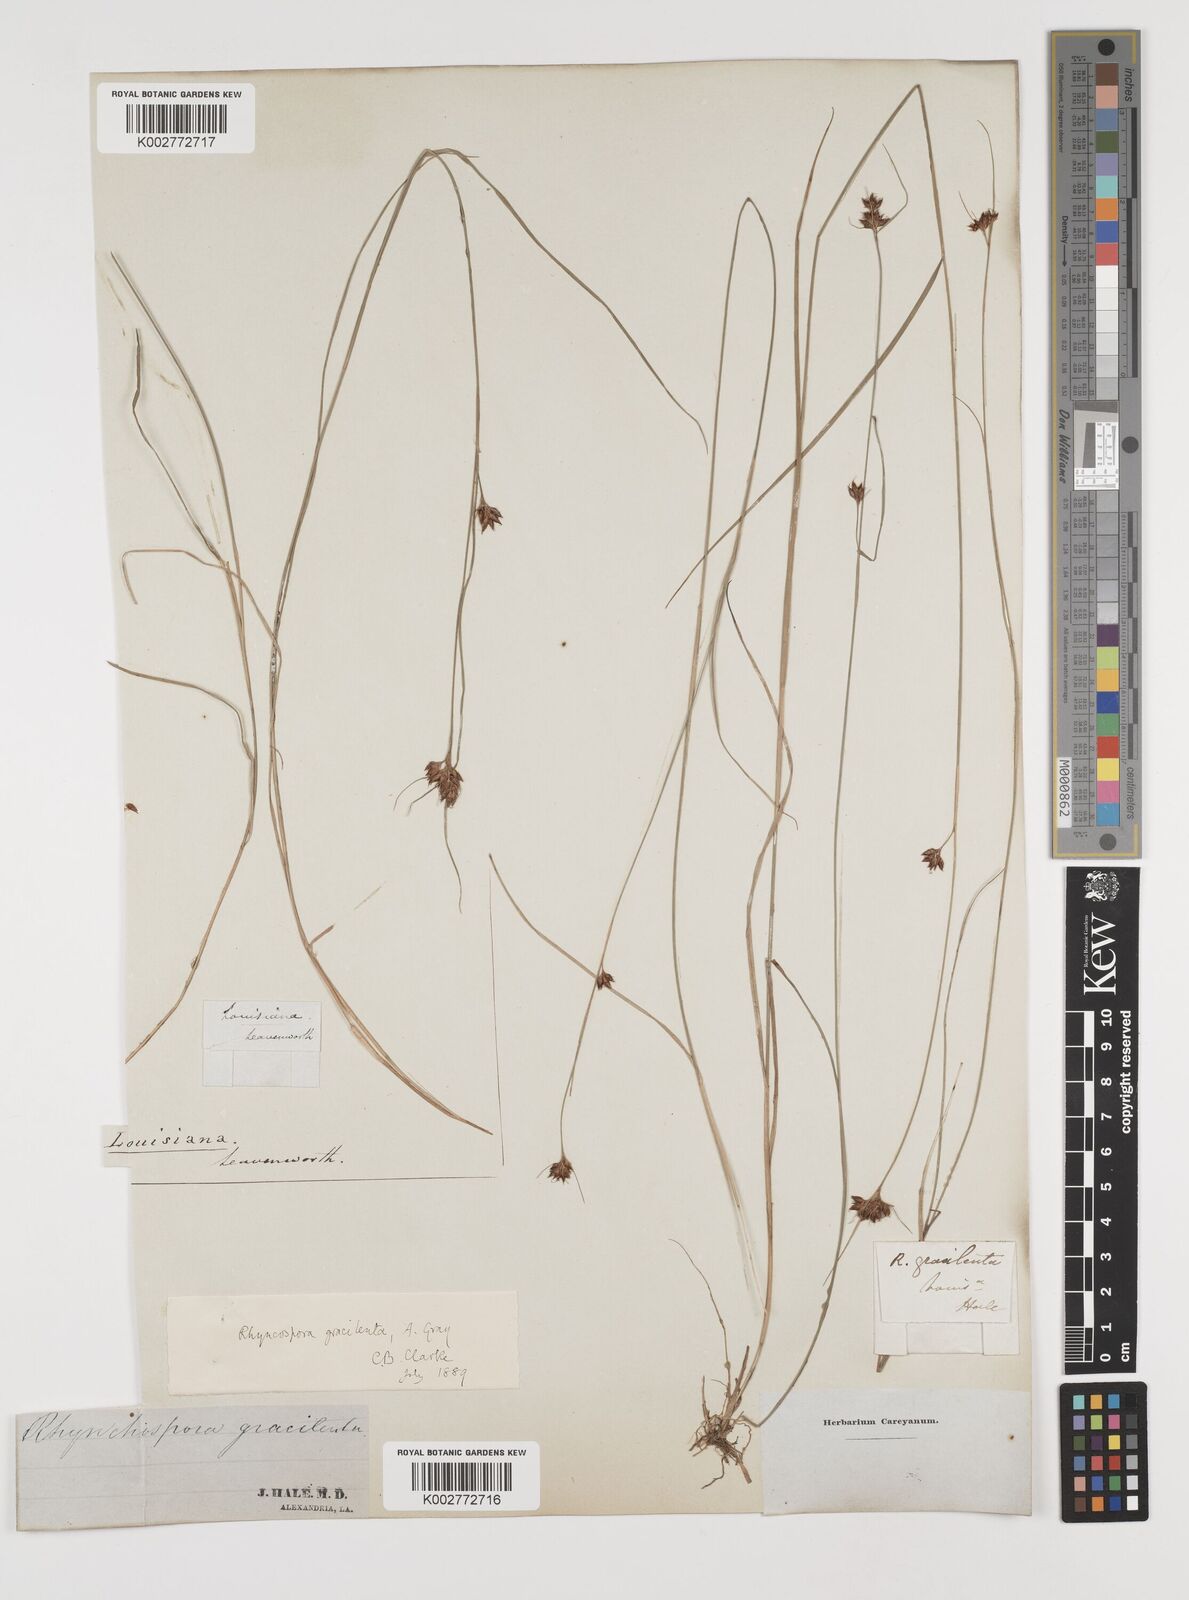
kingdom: Plantae
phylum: Tracheophyta
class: Liliopsida
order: Poales
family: Cyperaceae
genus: Rhynchospora
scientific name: Rhynchospora gracilenta
